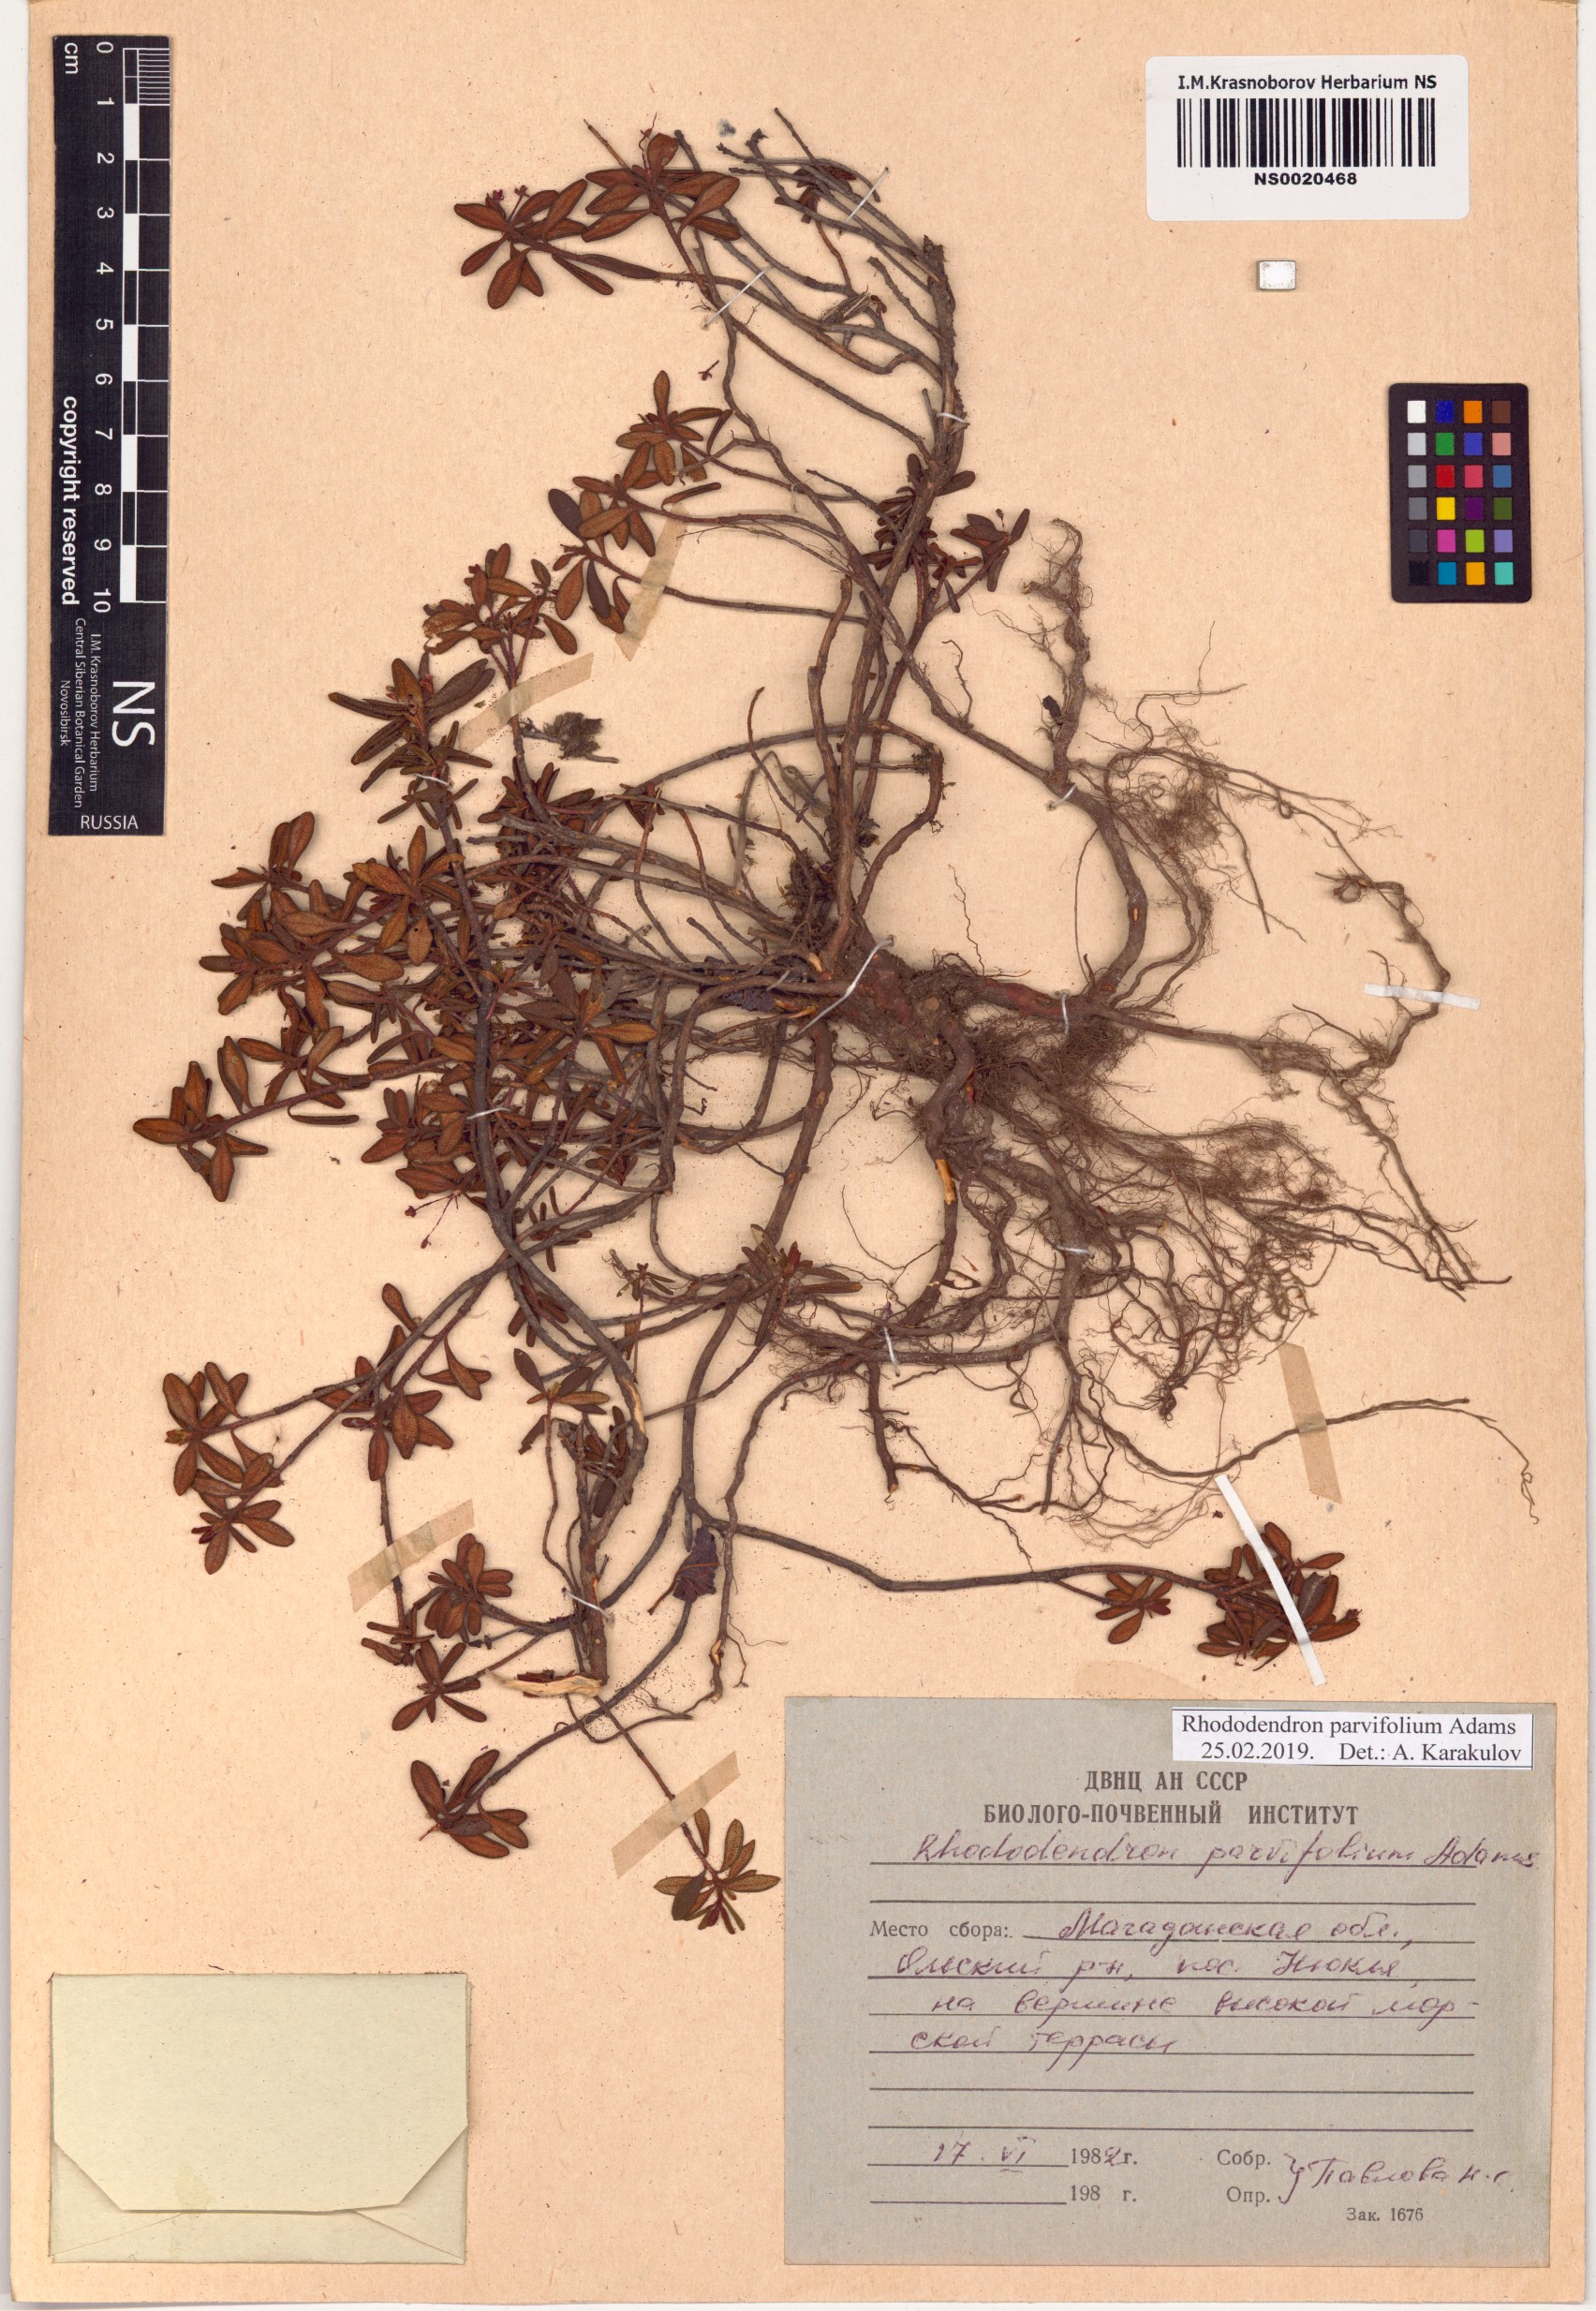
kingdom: Plantae
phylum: Tracheophyta
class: Magnoliopsida
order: Ericales
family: Ericaceae
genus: Rhododendron
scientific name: Rhododendron parvifolium
